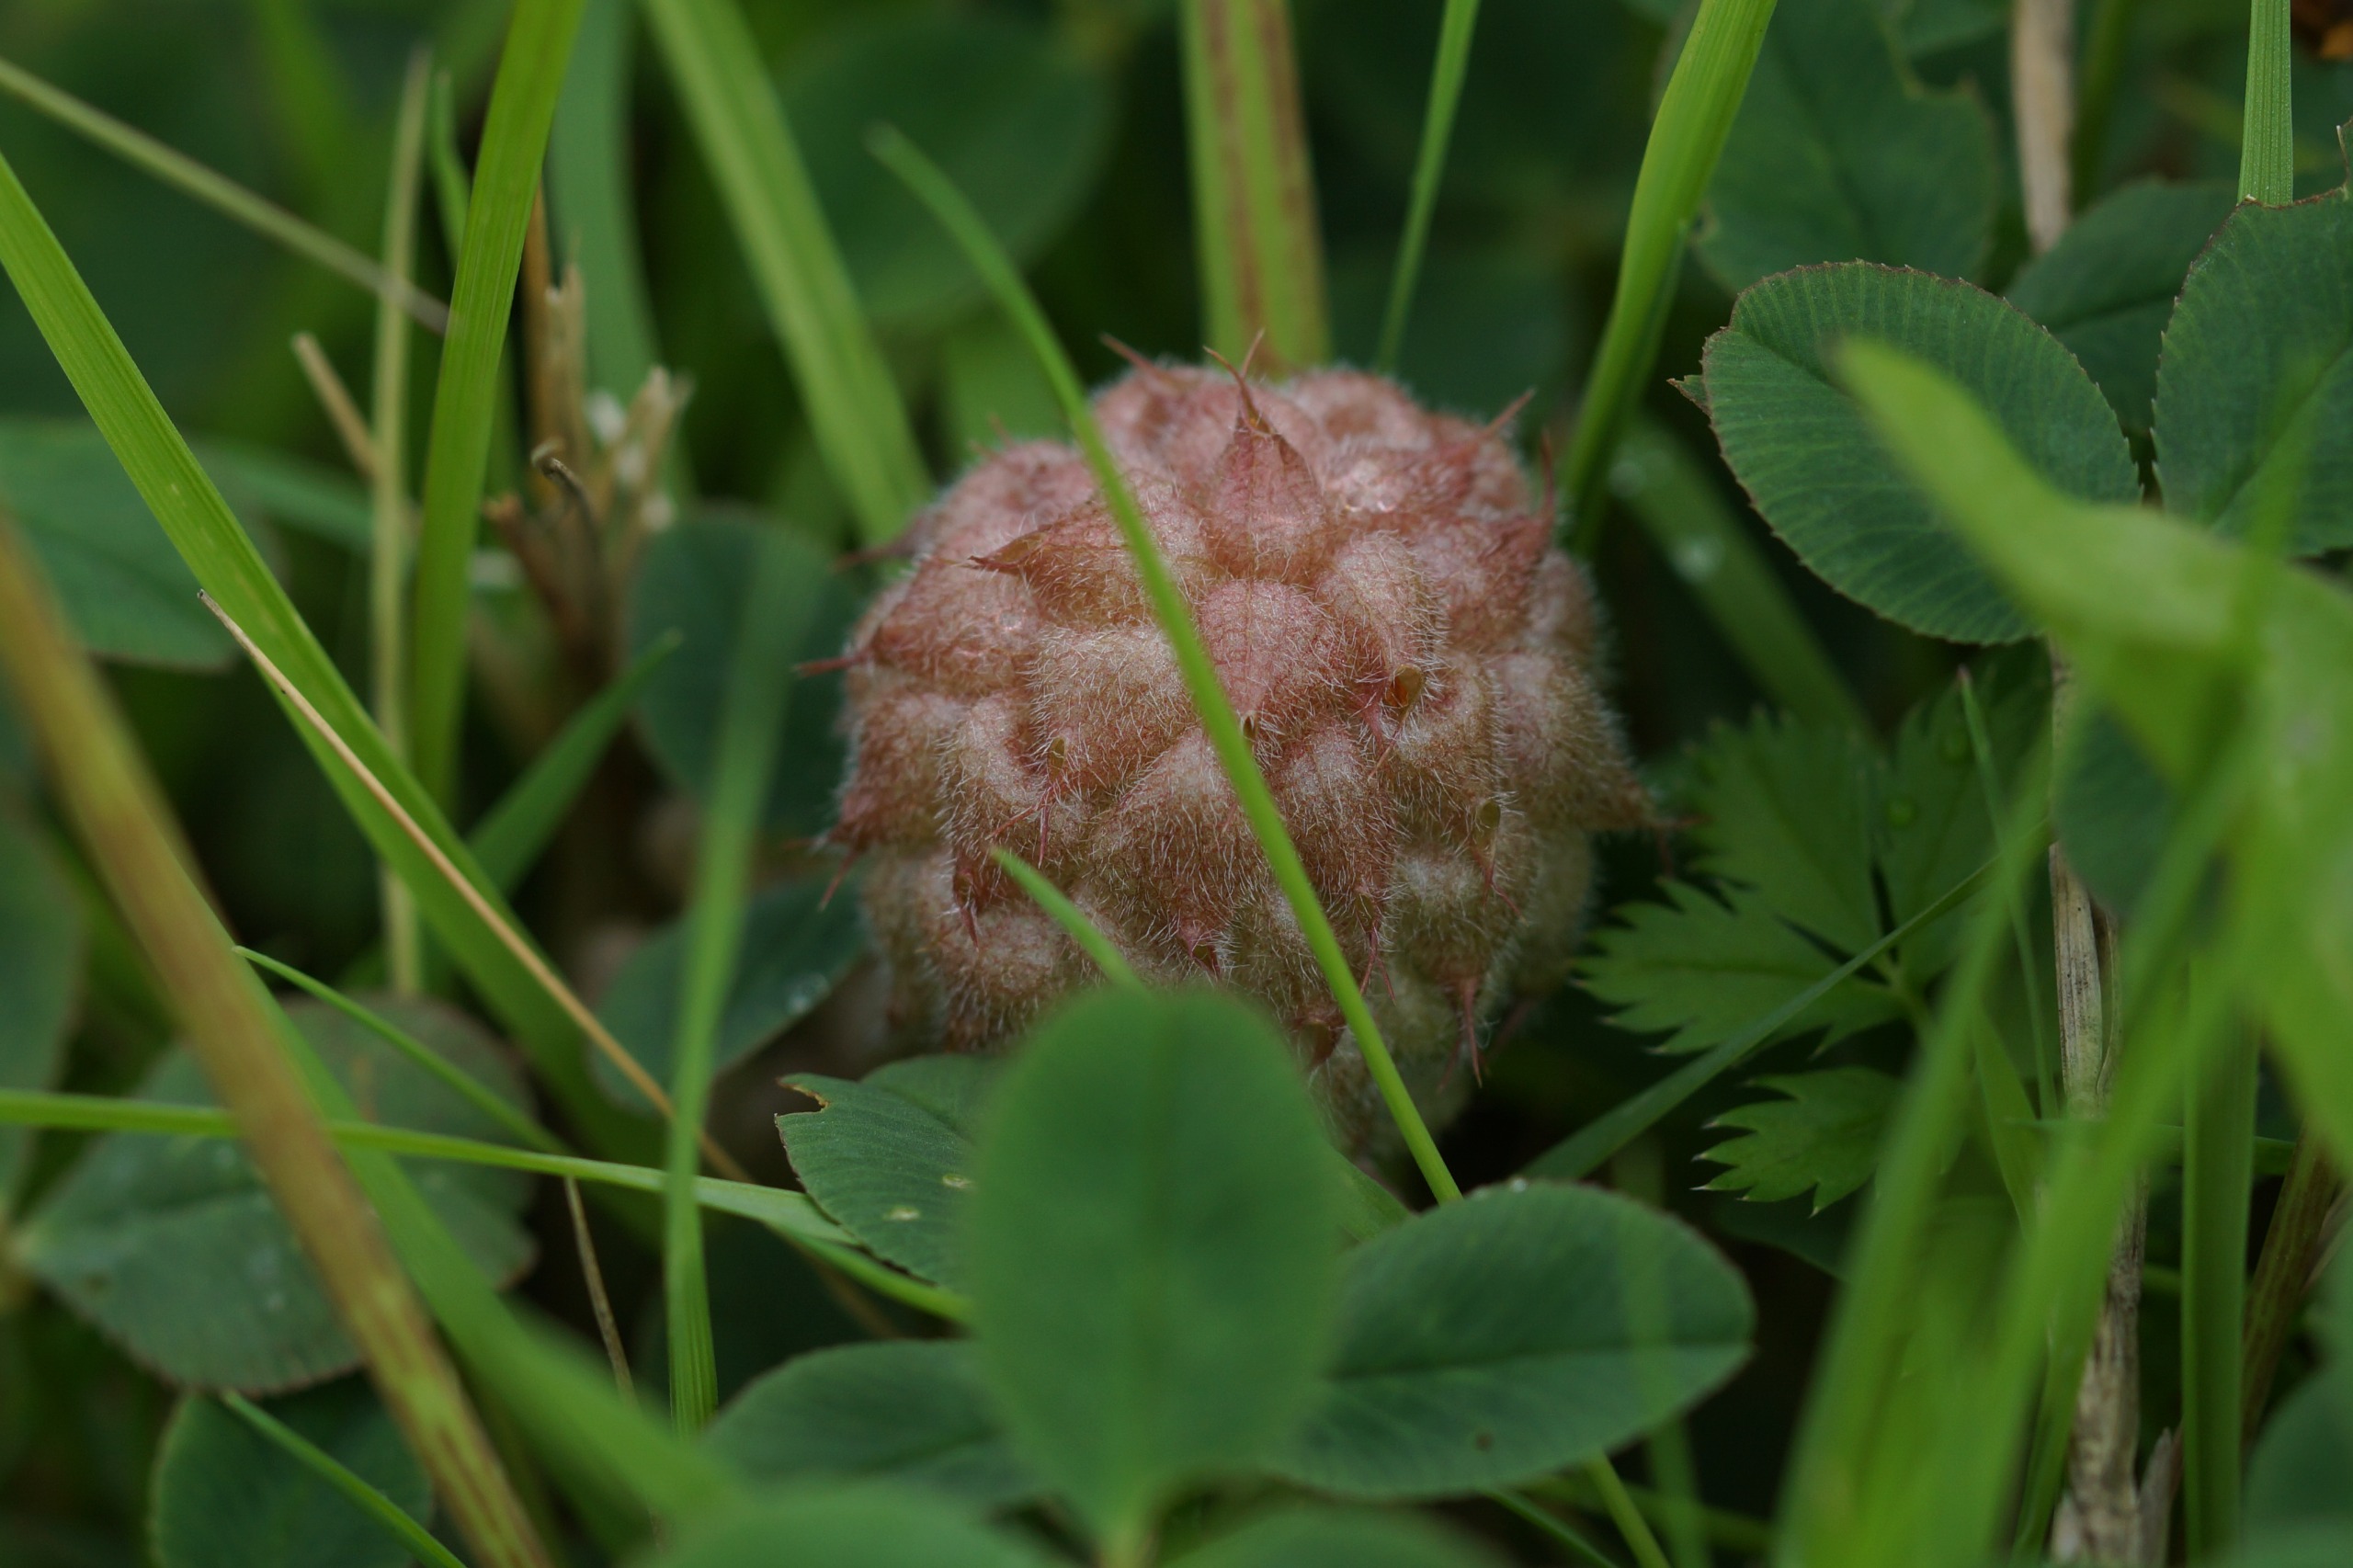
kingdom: Plantae
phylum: Tracheophyta
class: Magnoliopsida
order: Fabales
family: Fabaceae
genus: Trifolium
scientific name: Trifolium fragiferum
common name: Jordbær-kløver
